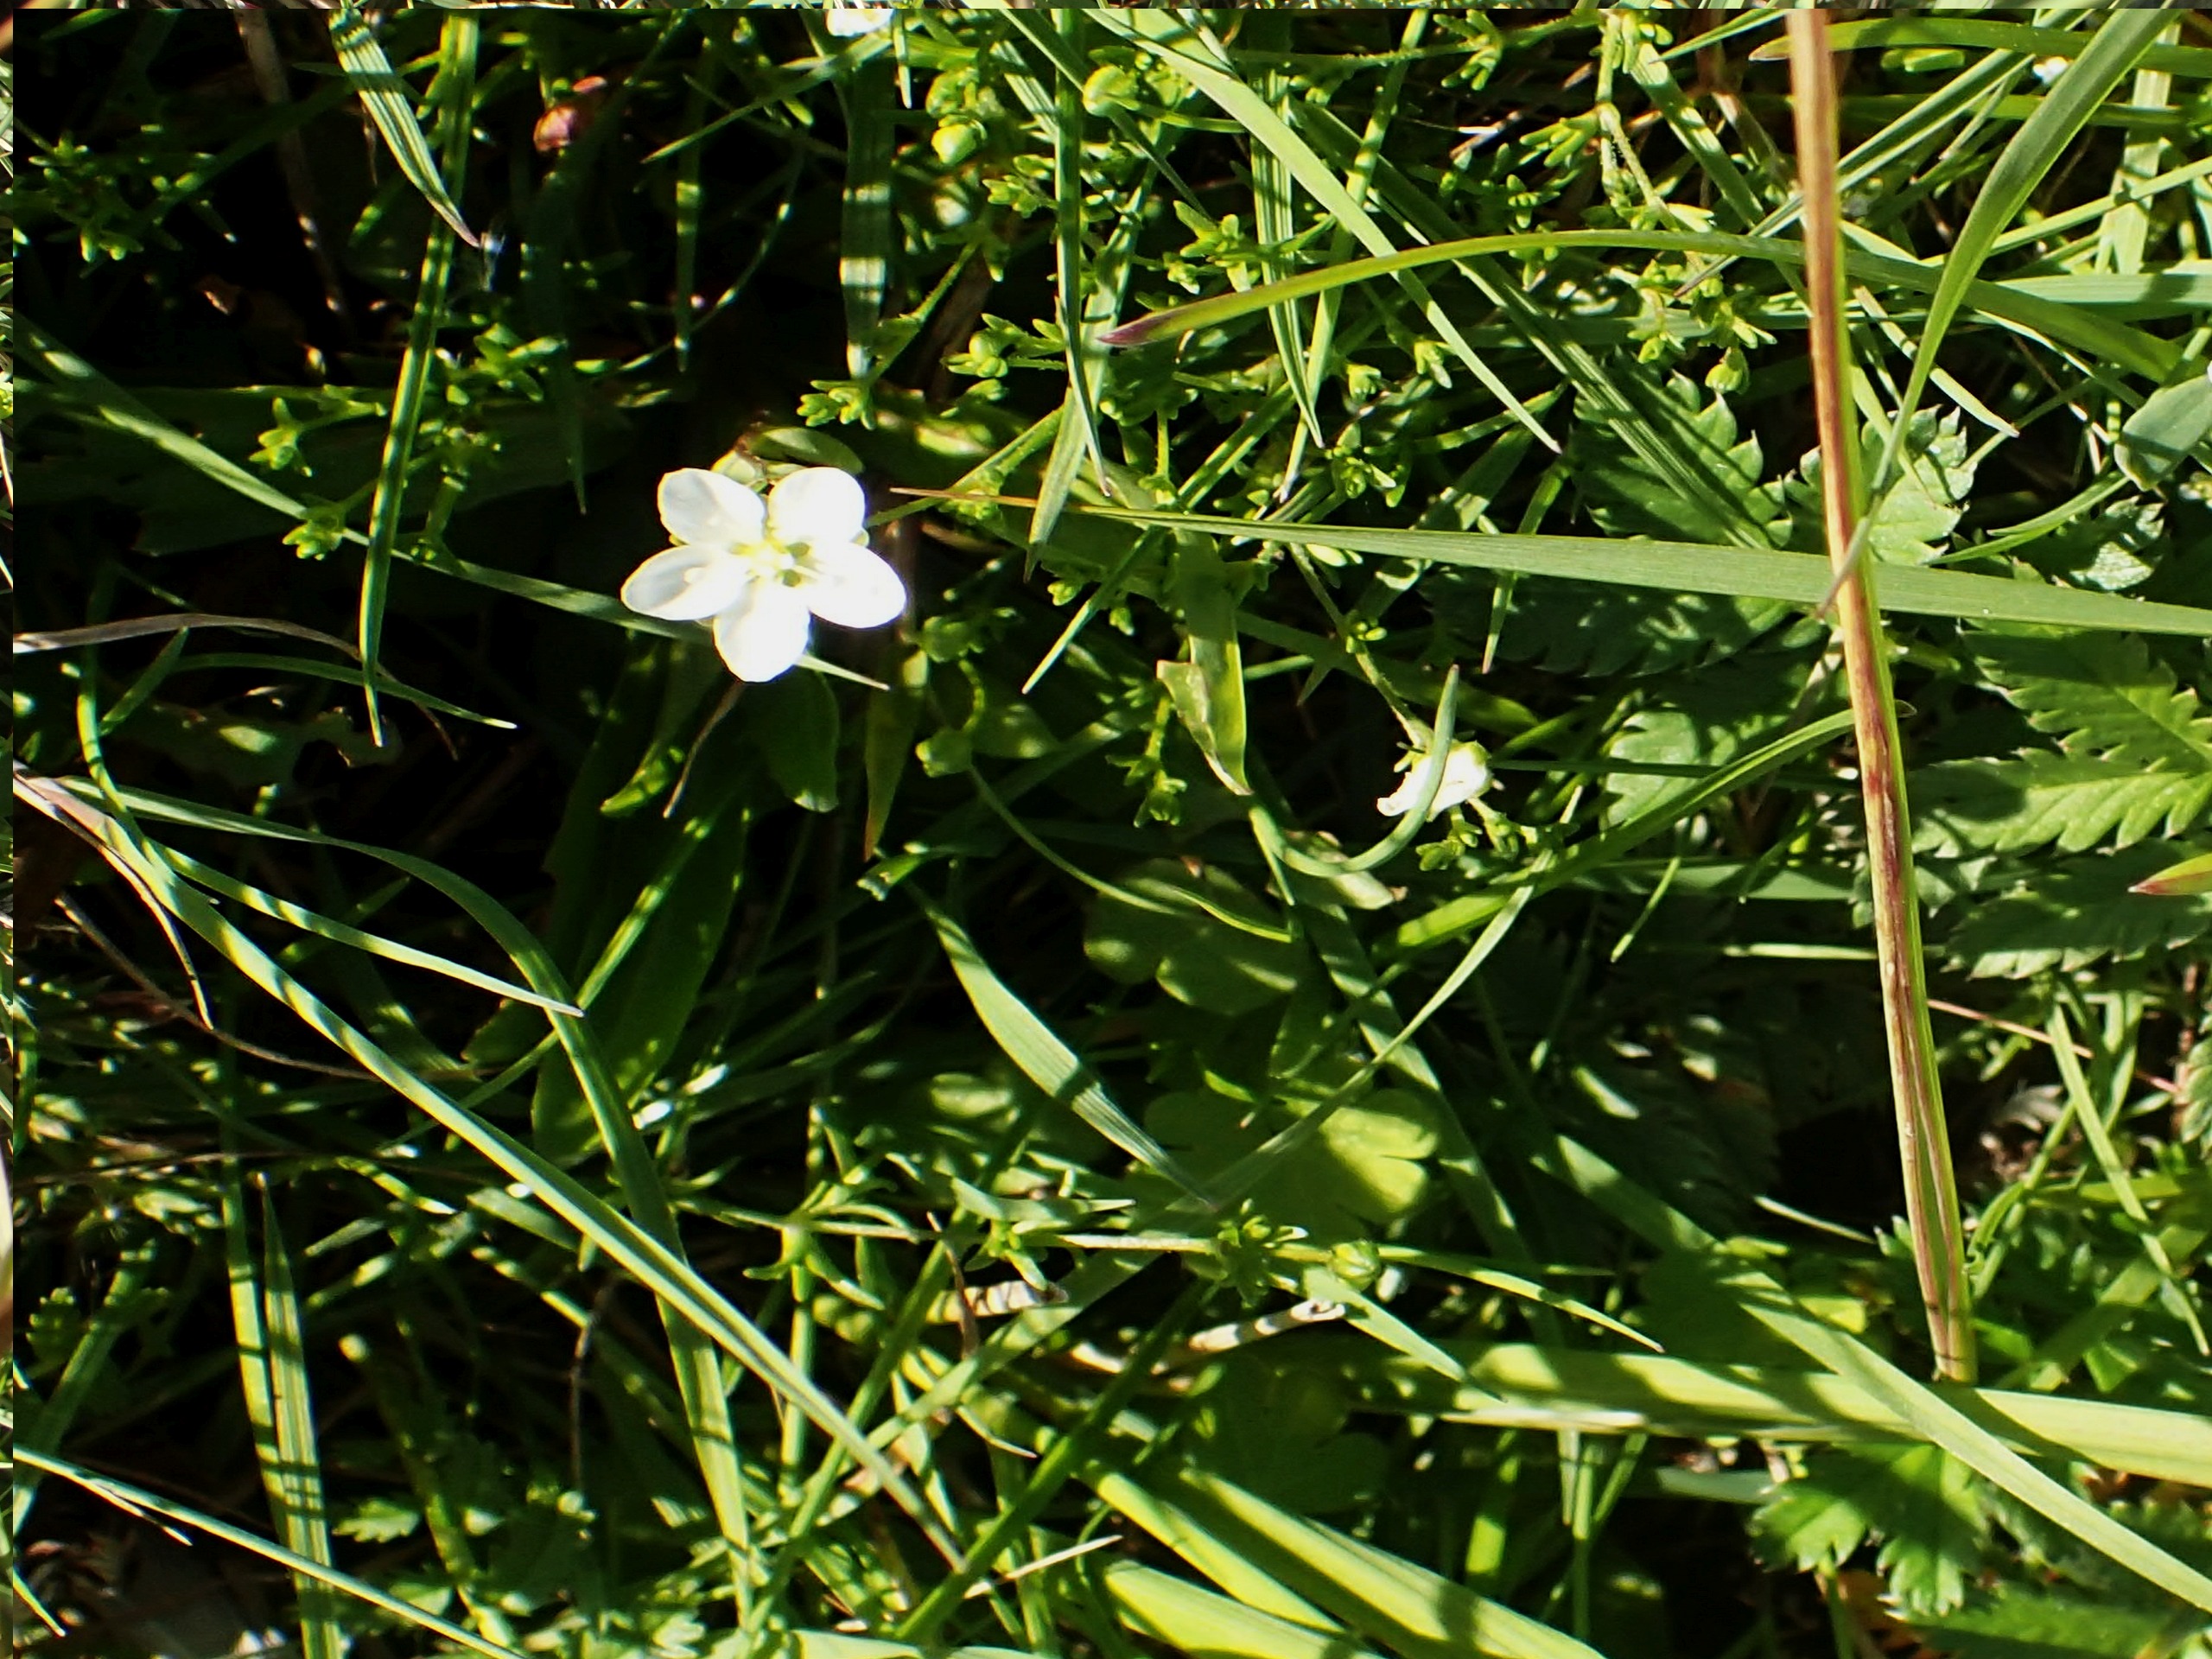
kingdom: Plantae
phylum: Tracheophyta
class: Magnoliopsida
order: Caryophyllales
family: Caryophyllaceae
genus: Sagina
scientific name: Sagina nodosa
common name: Knude-firling
